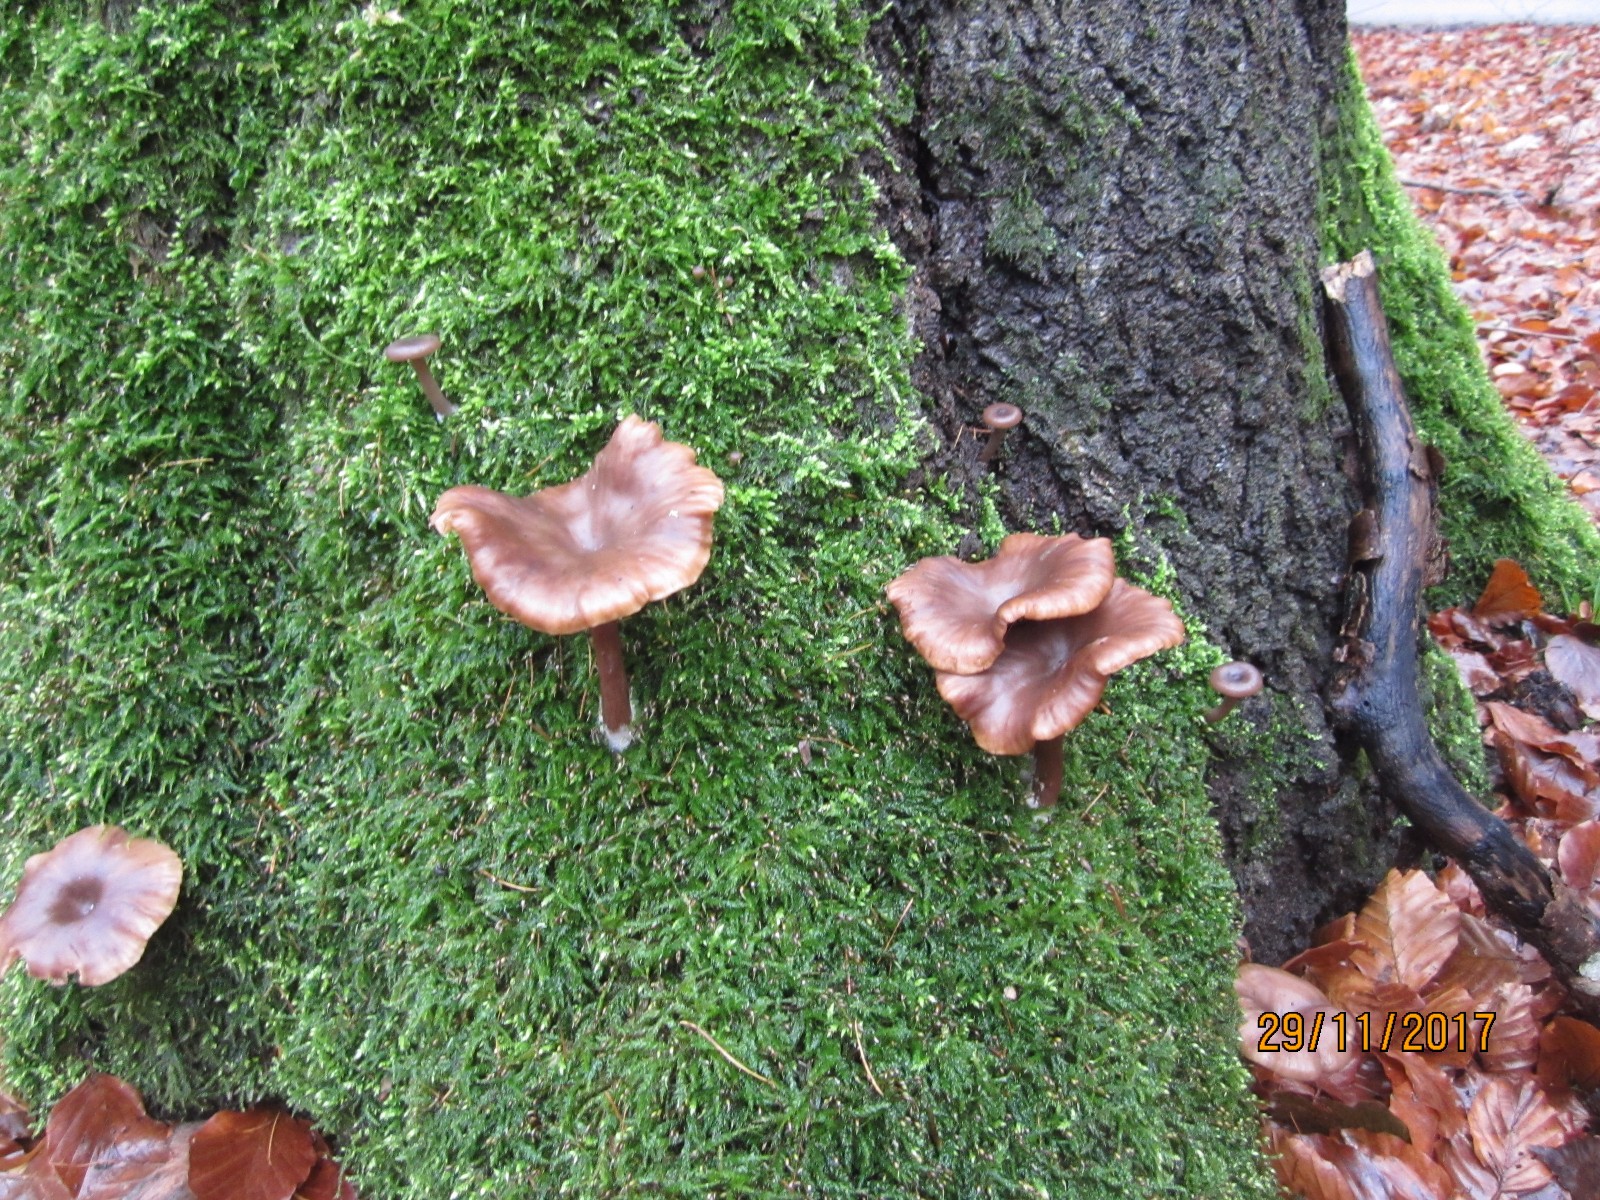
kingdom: Fungi
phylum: Basidiomycota
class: Agaricomycetes
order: Agaricales
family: Pseudoclitocybaceae
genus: Pseudoclitocybe
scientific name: Pseudoclitocybe cyathiformis
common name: almindelig bægertragthat
